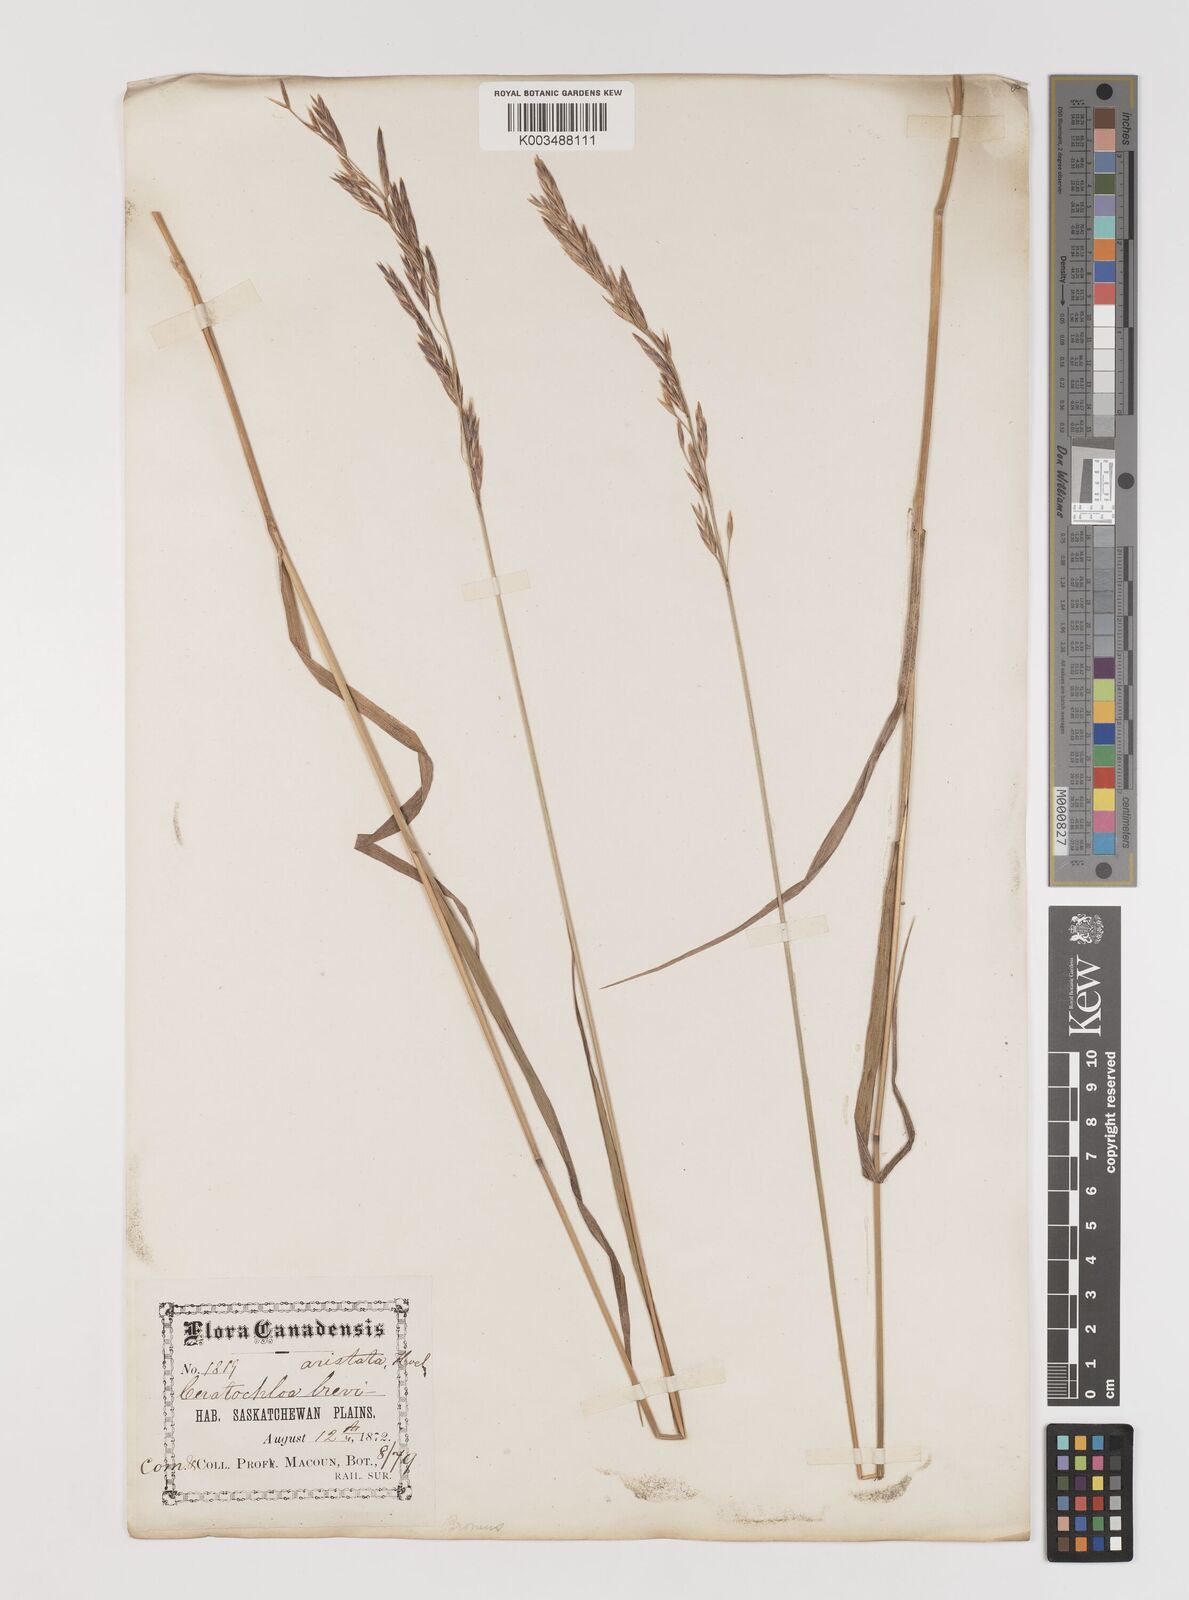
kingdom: Plantae
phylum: Tracheophyta
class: Liliopsida
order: Poales
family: Poaceae
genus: Bromus
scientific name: Bromus pumpellianus
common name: Pumpelly's brome
